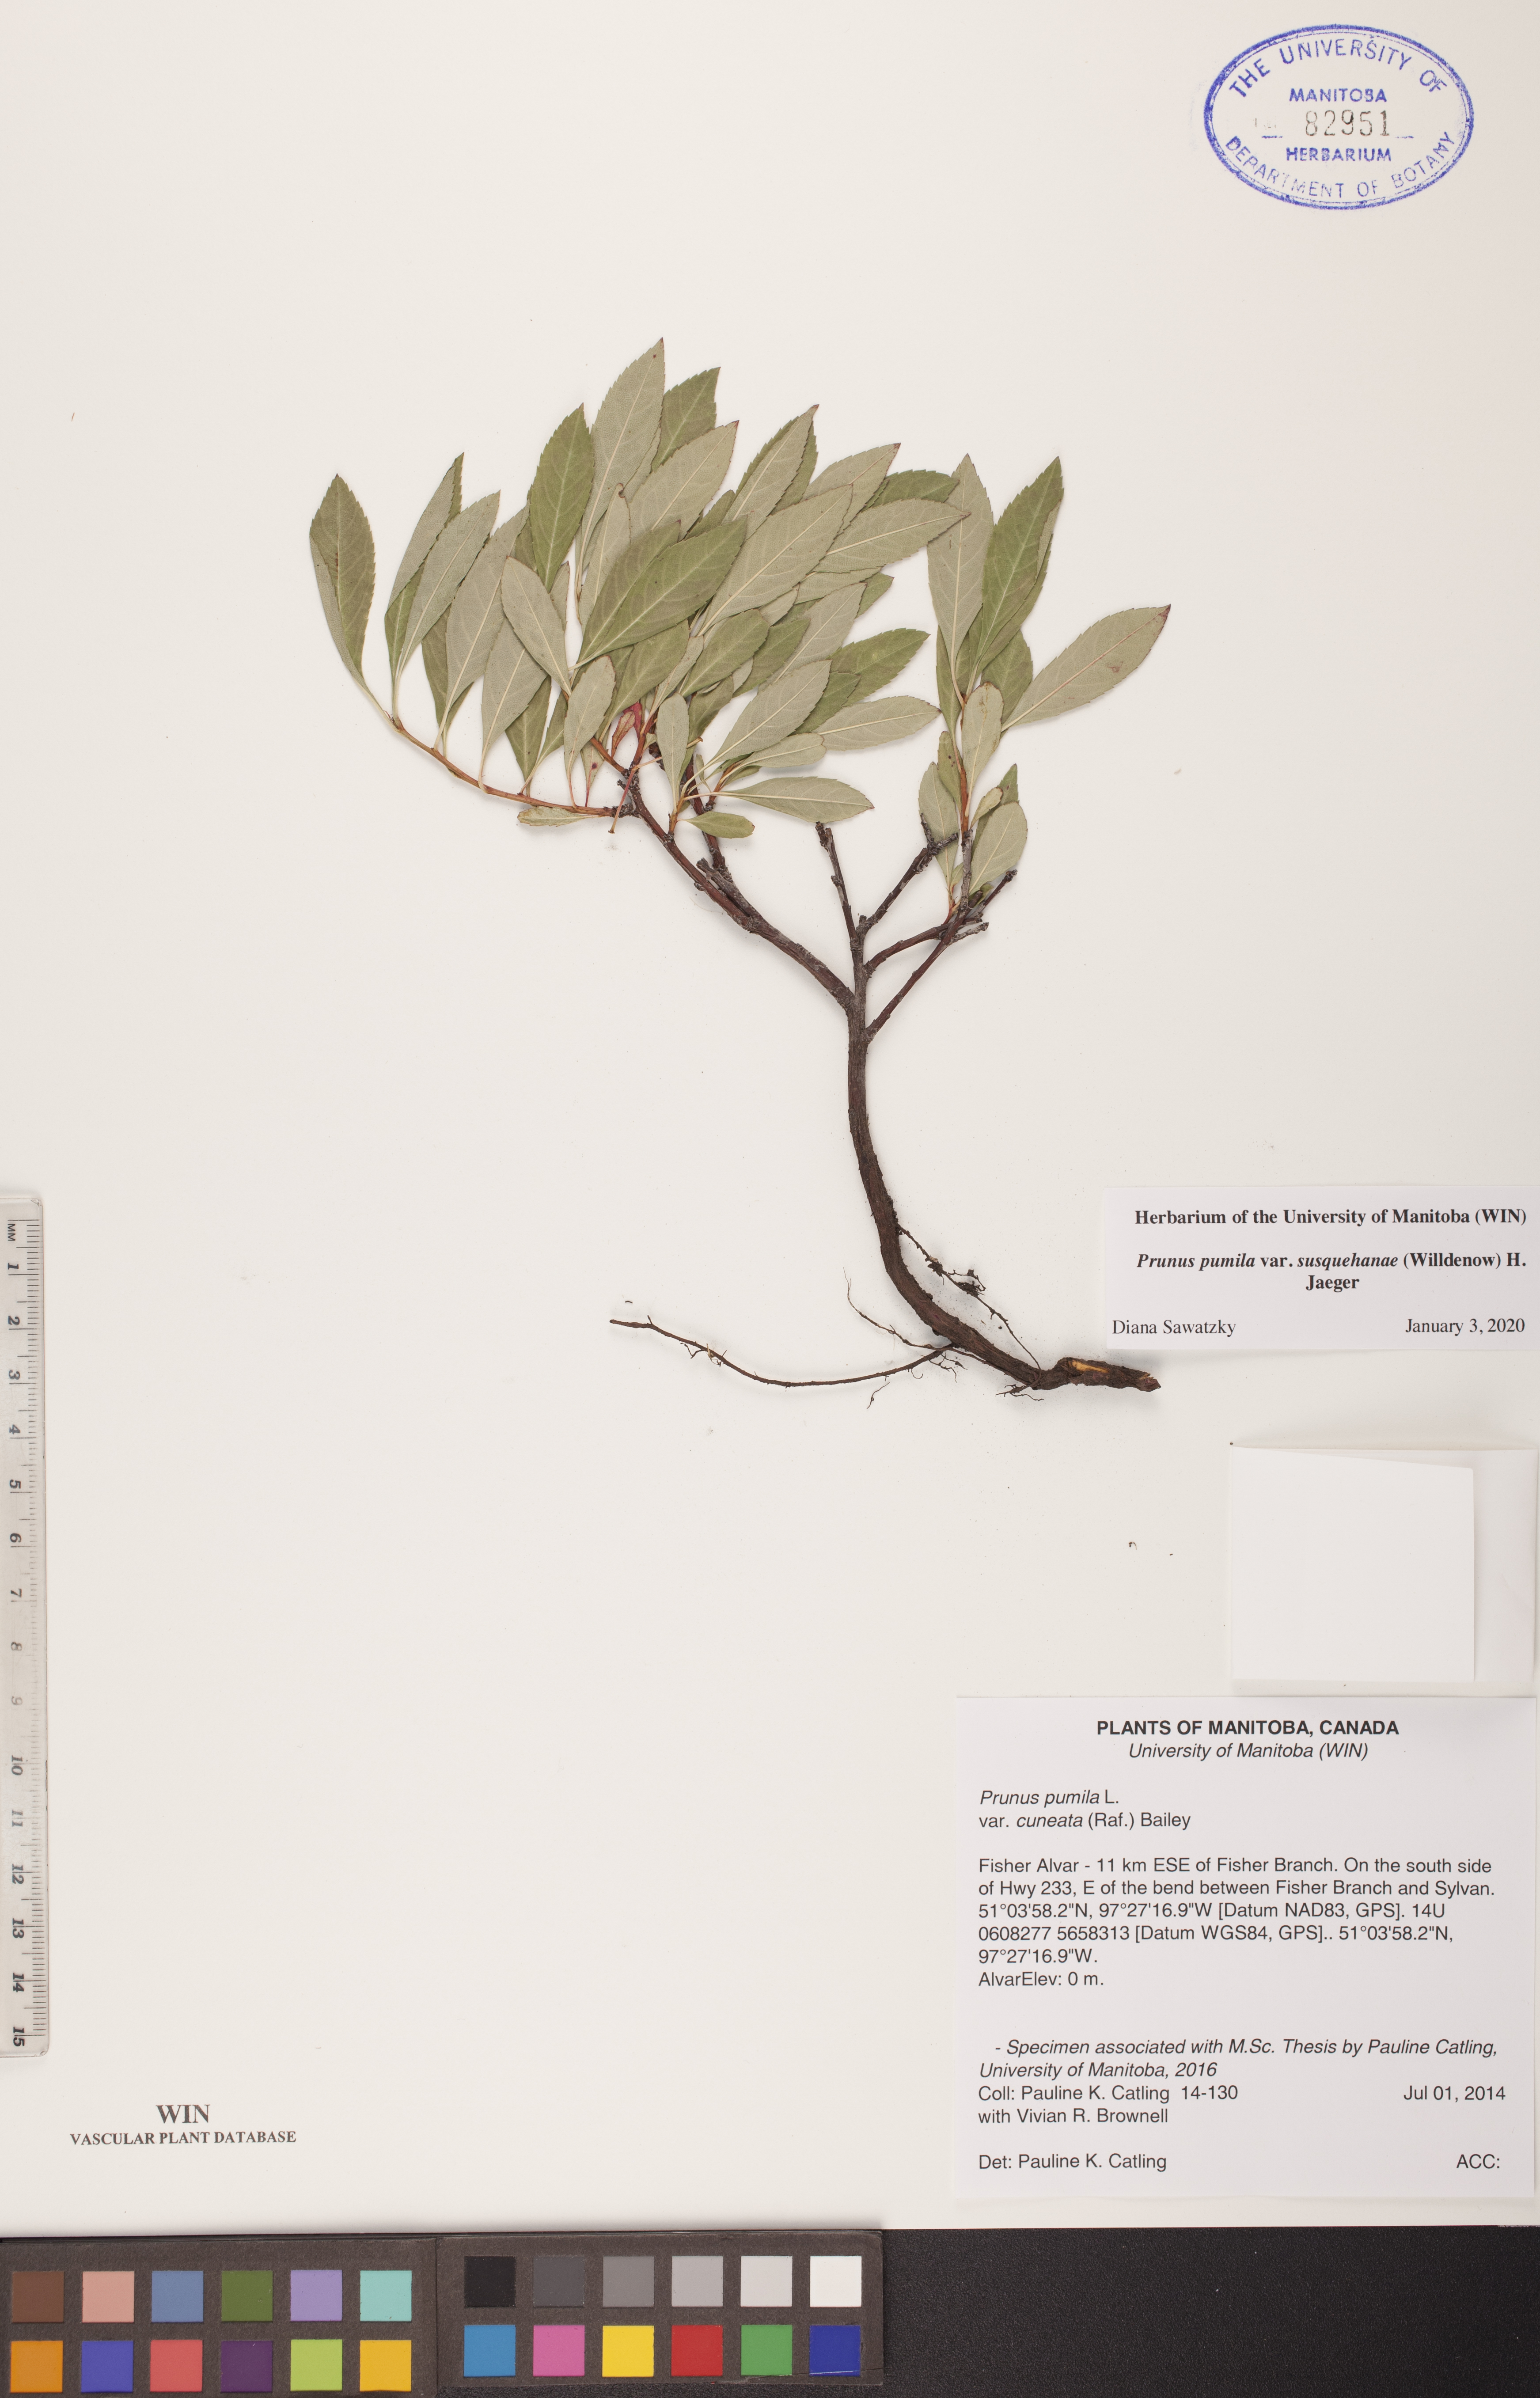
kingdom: Plantae
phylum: Tracheophyta
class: Magnoliopsida
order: Rosales
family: Rosaceae
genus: Prunus
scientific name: Prunus susquehanae
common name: Sesquehana sandcherry
